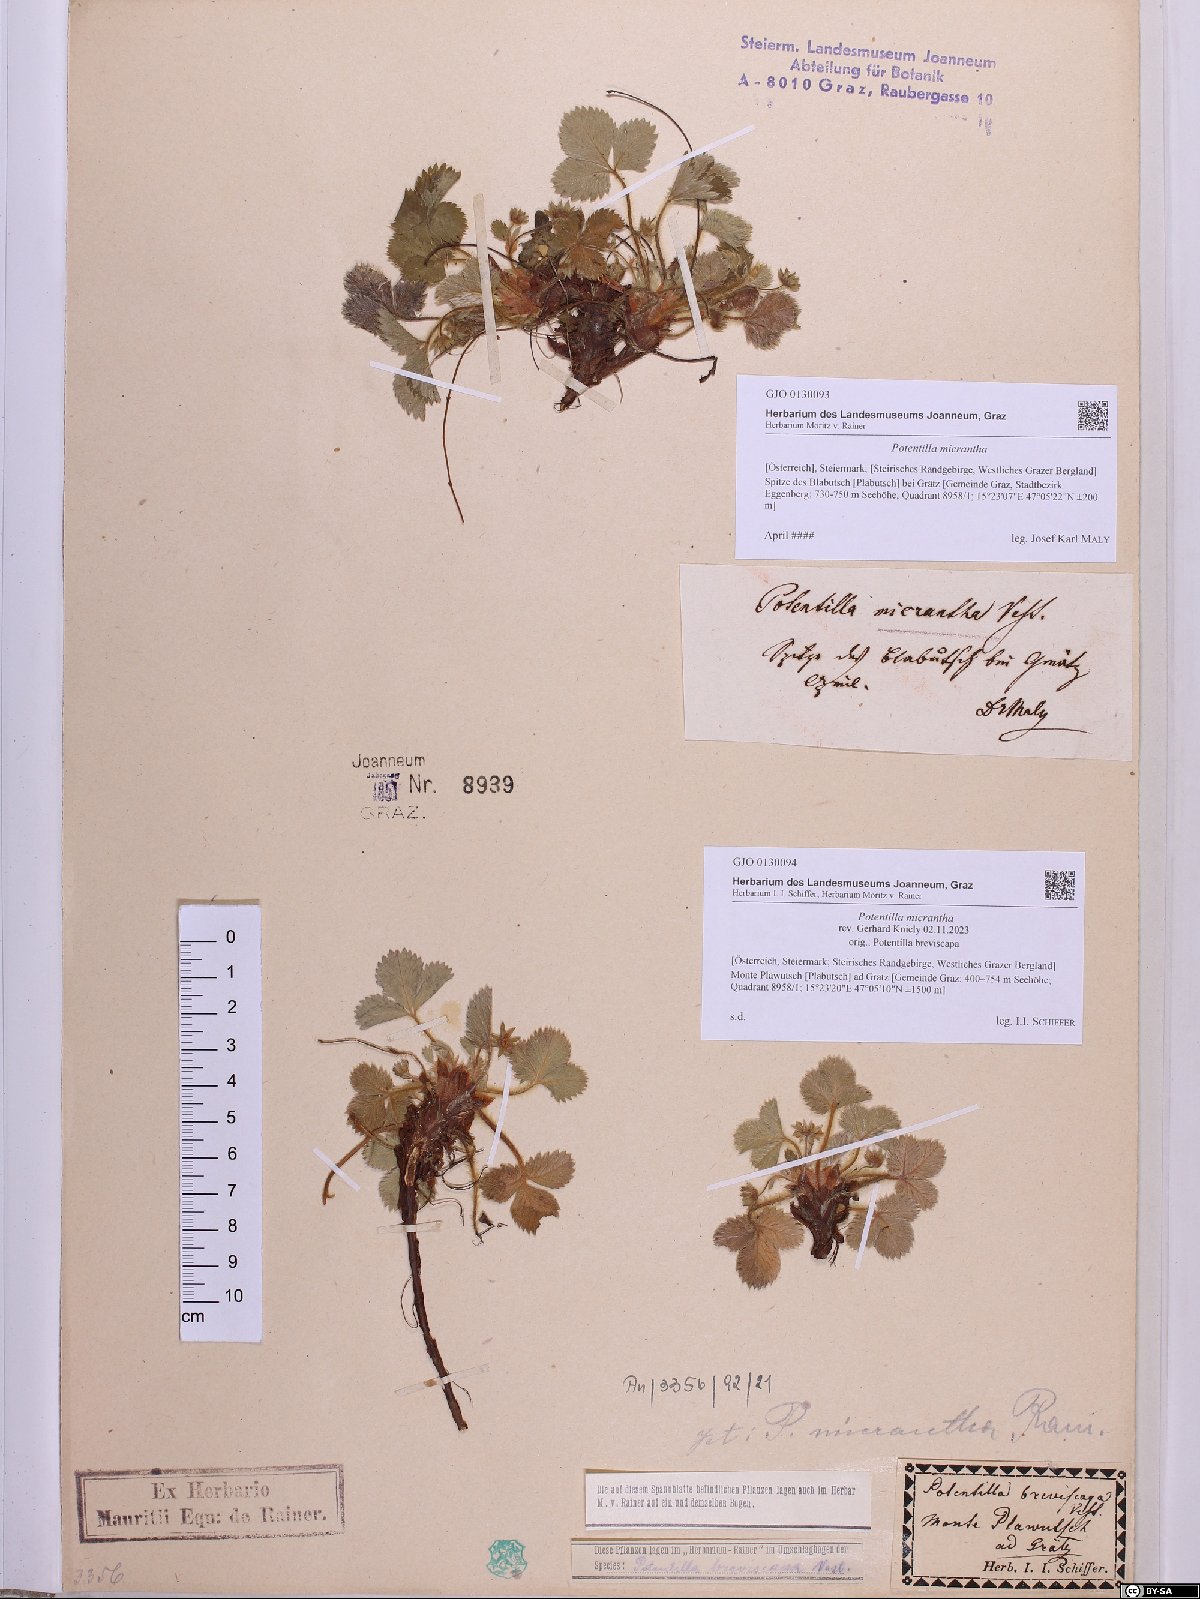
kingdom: Plantae
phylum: Tracheophyta
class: Magnoliopsida
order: Rosales
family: Rosaceae
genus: Potentilla
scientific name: Potentilla micrantha
